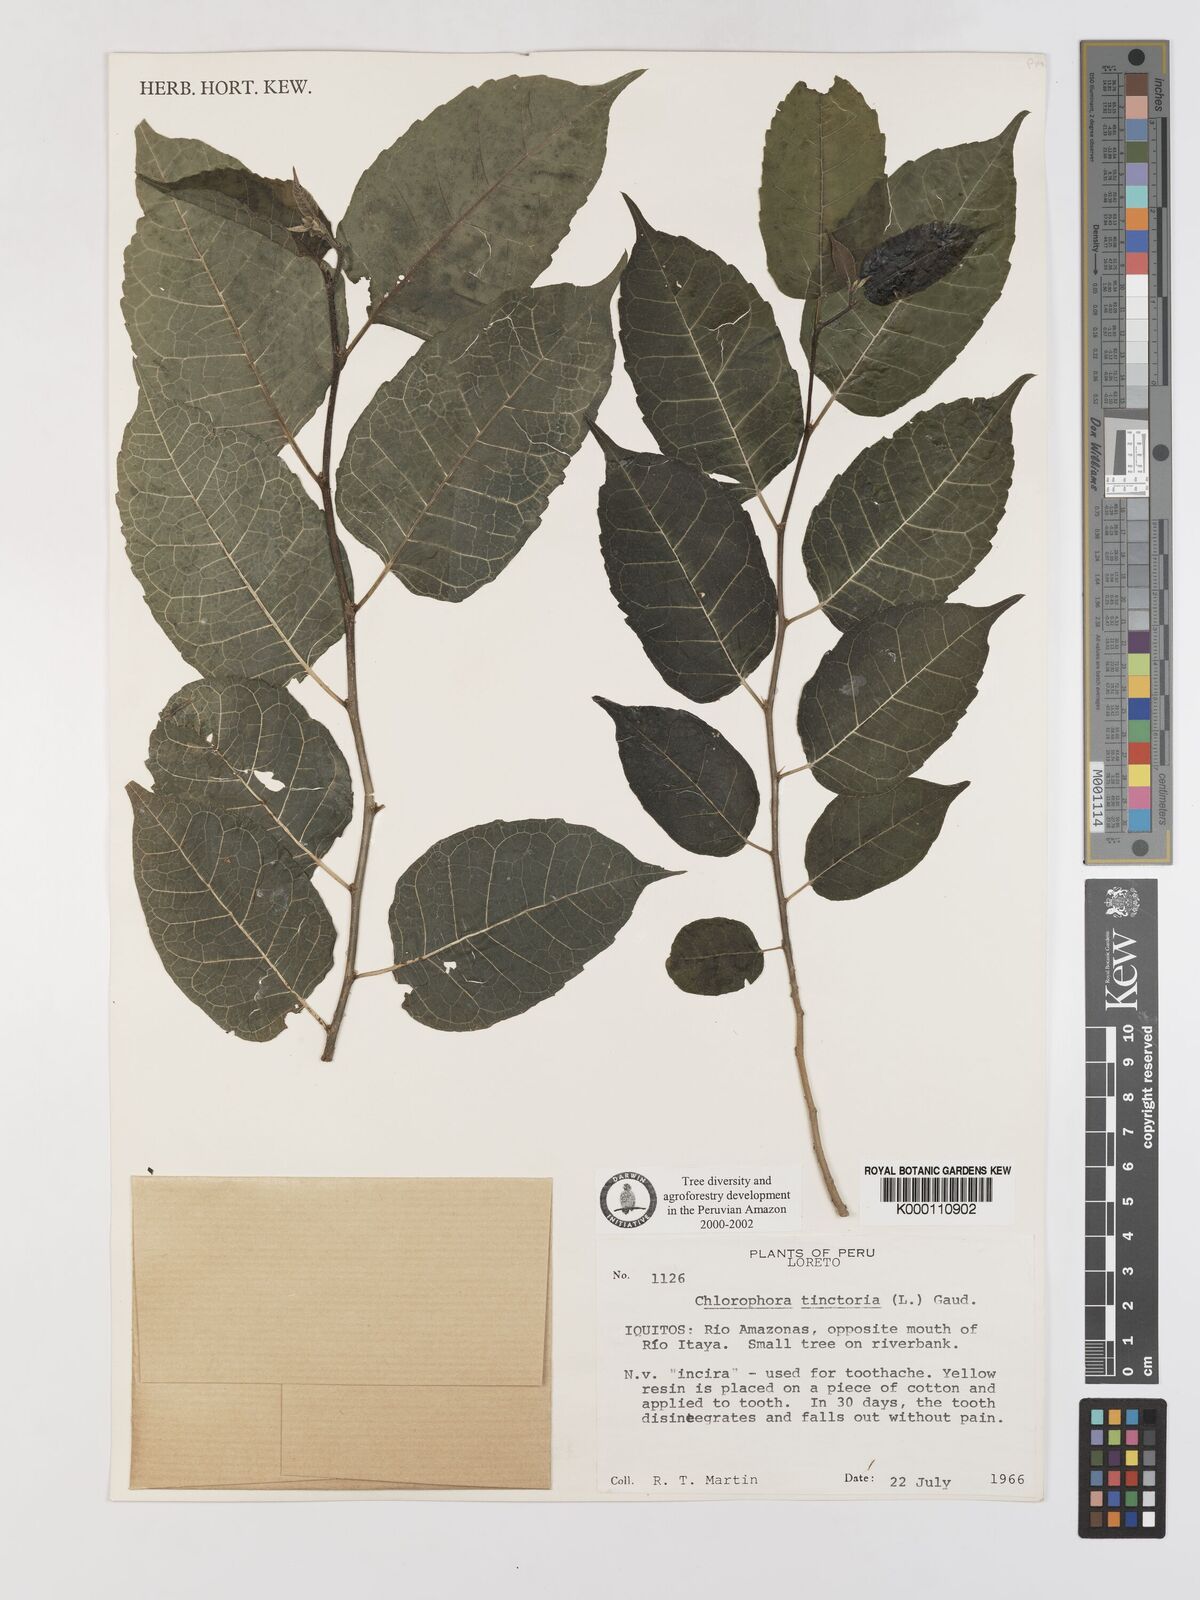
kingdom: Plantae
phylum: Tracheophyta
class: Magnoliopsida
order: Rosales
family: Moraceae
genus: Maclura
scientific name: Maclura tinctoria
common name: Old fustic
